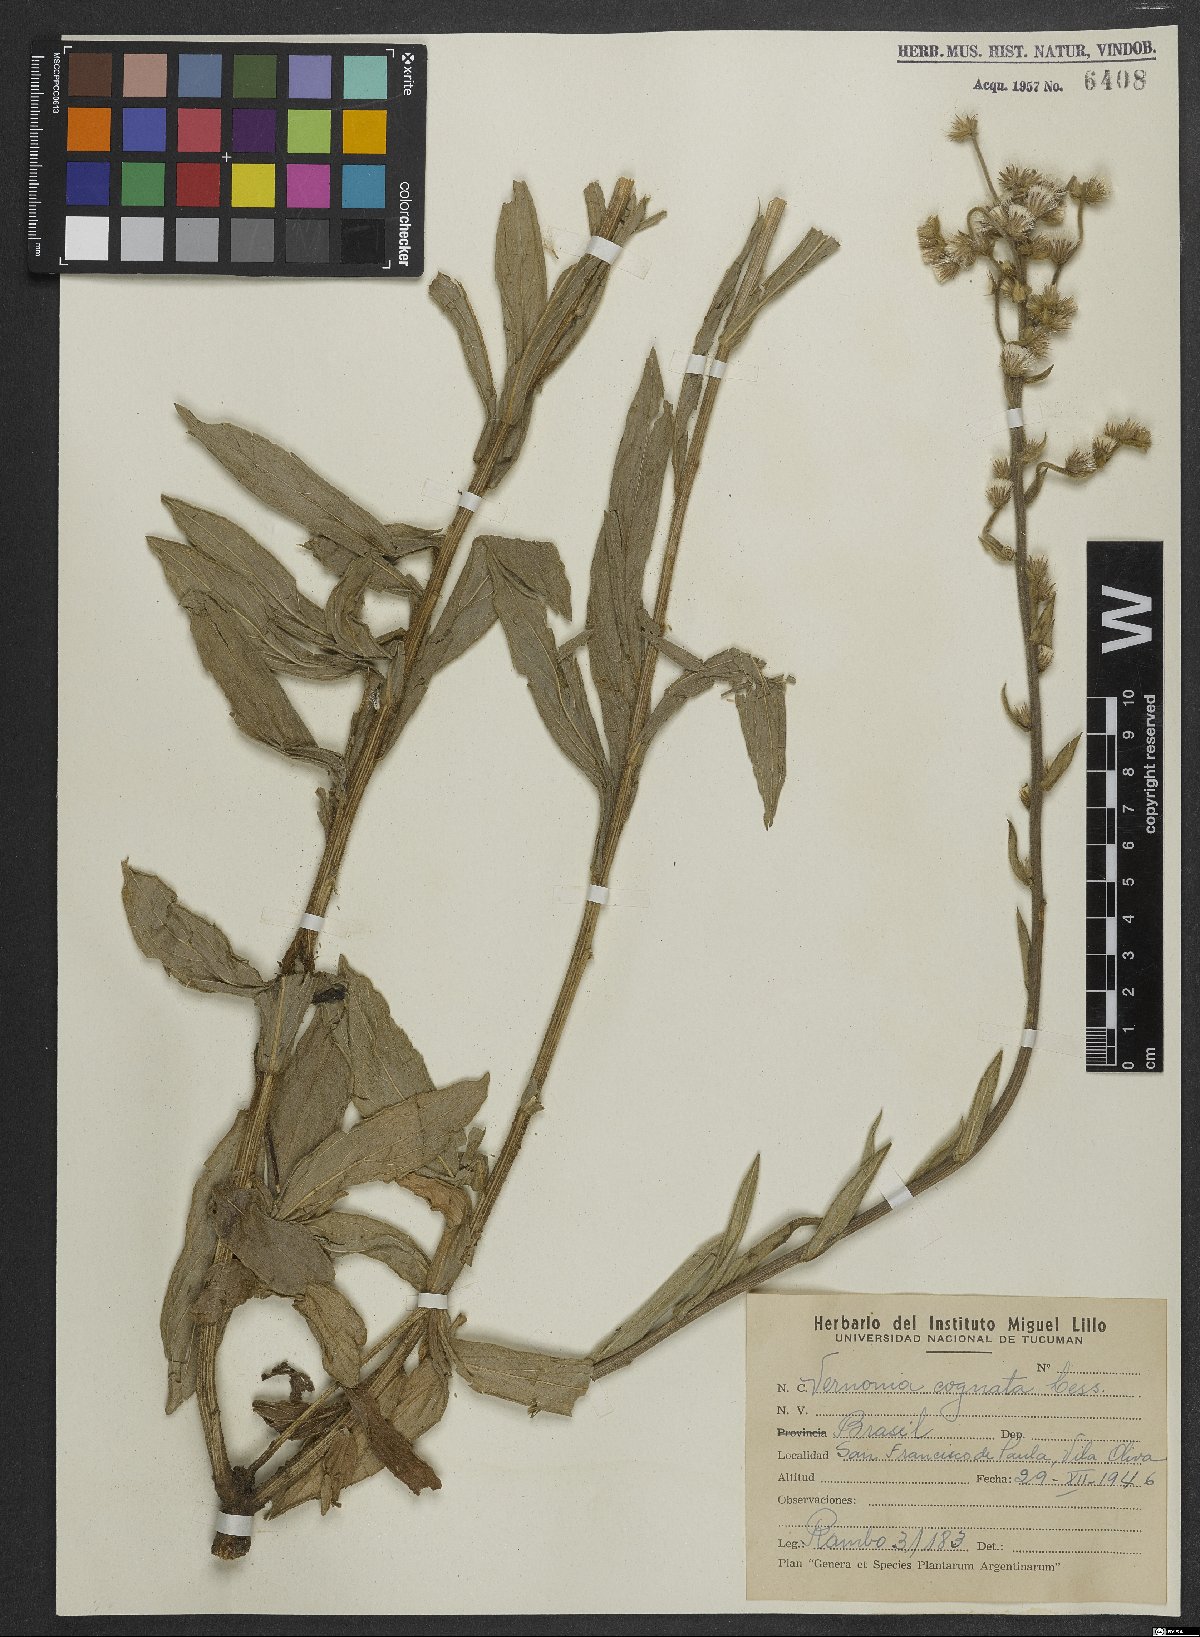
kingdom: Plantae
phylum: Tracheophyta
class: Magnoliopsida
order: Asterales
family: Asteraceae
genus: Chrysolaena
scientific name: Chrysolaena cognata
